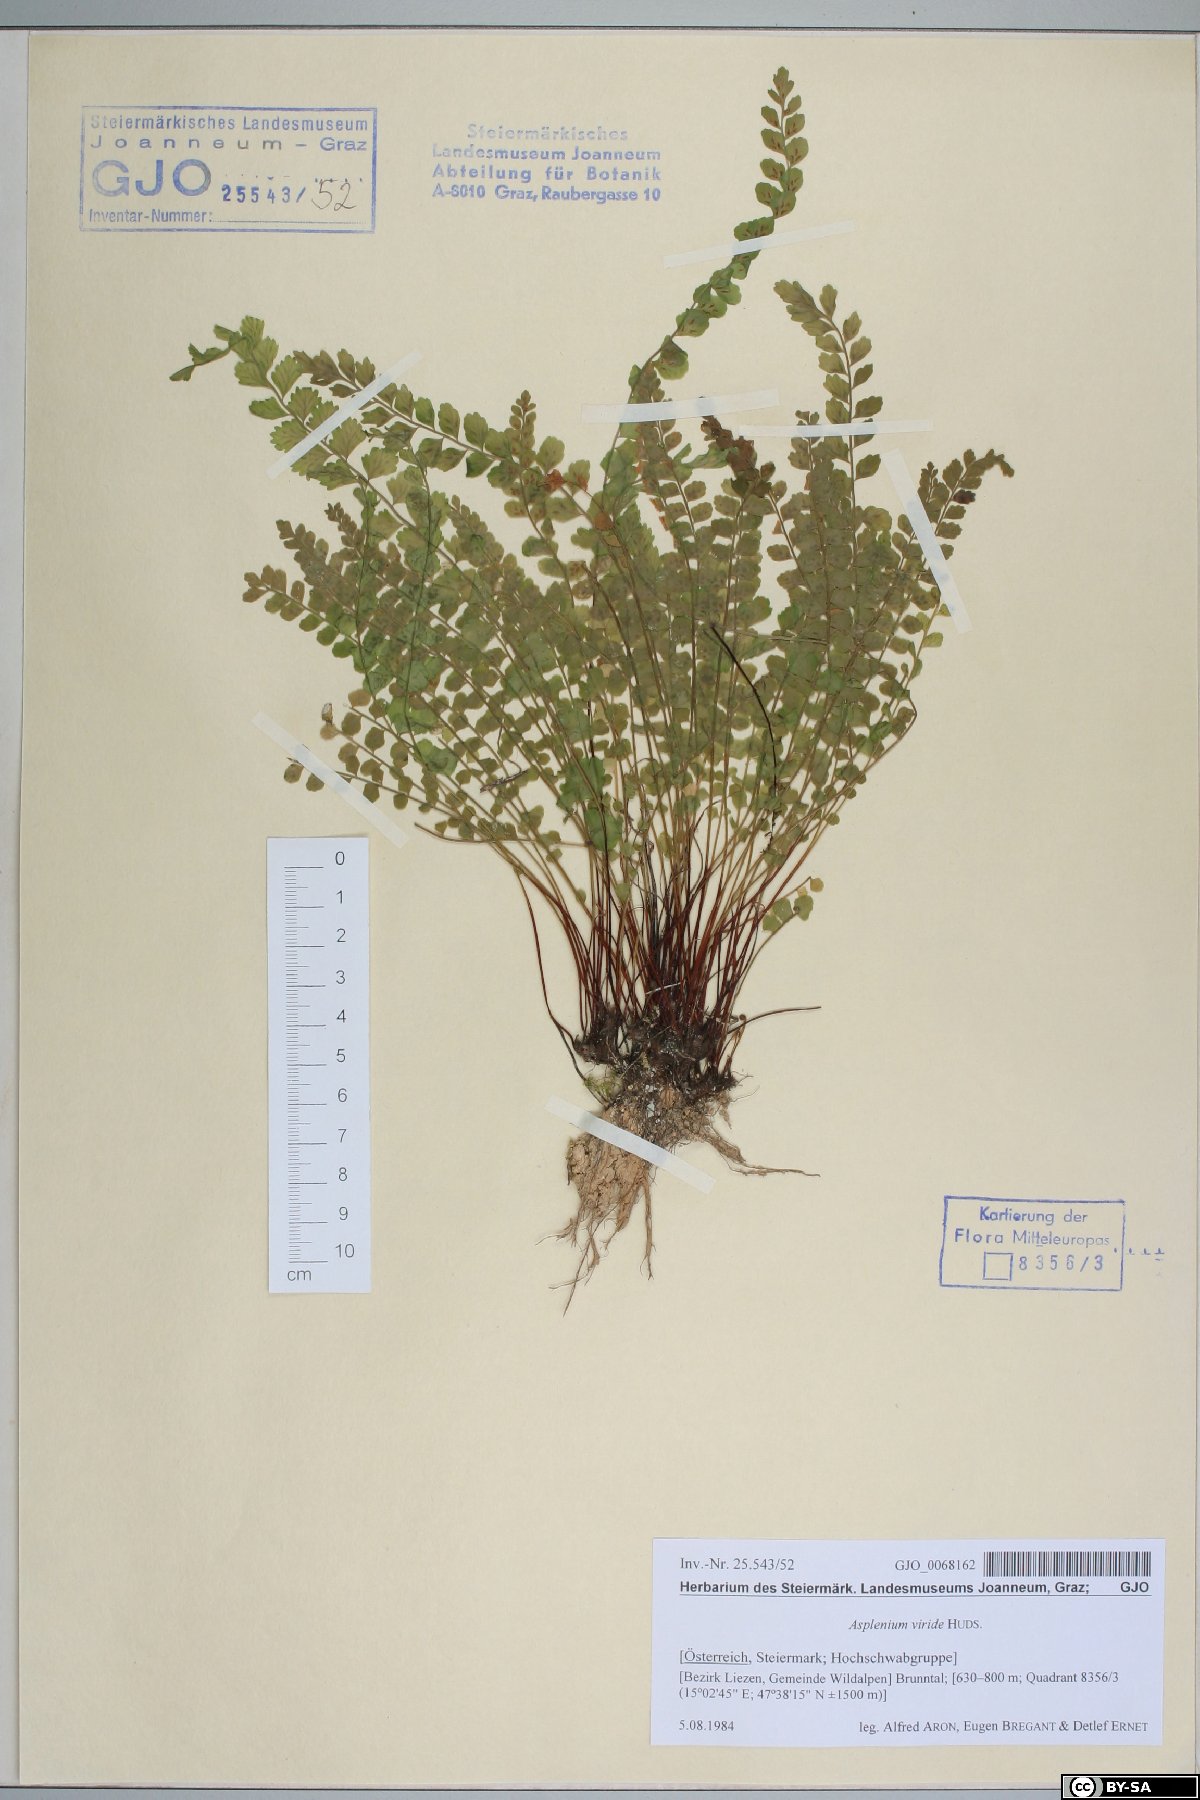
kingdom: Plantae
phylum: Tracheophyta
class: Polypodiopsida
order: Polypodiales
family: Aspleniaceae
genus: Asplenium
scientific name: Asplenium viride
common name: Green spleenwort
